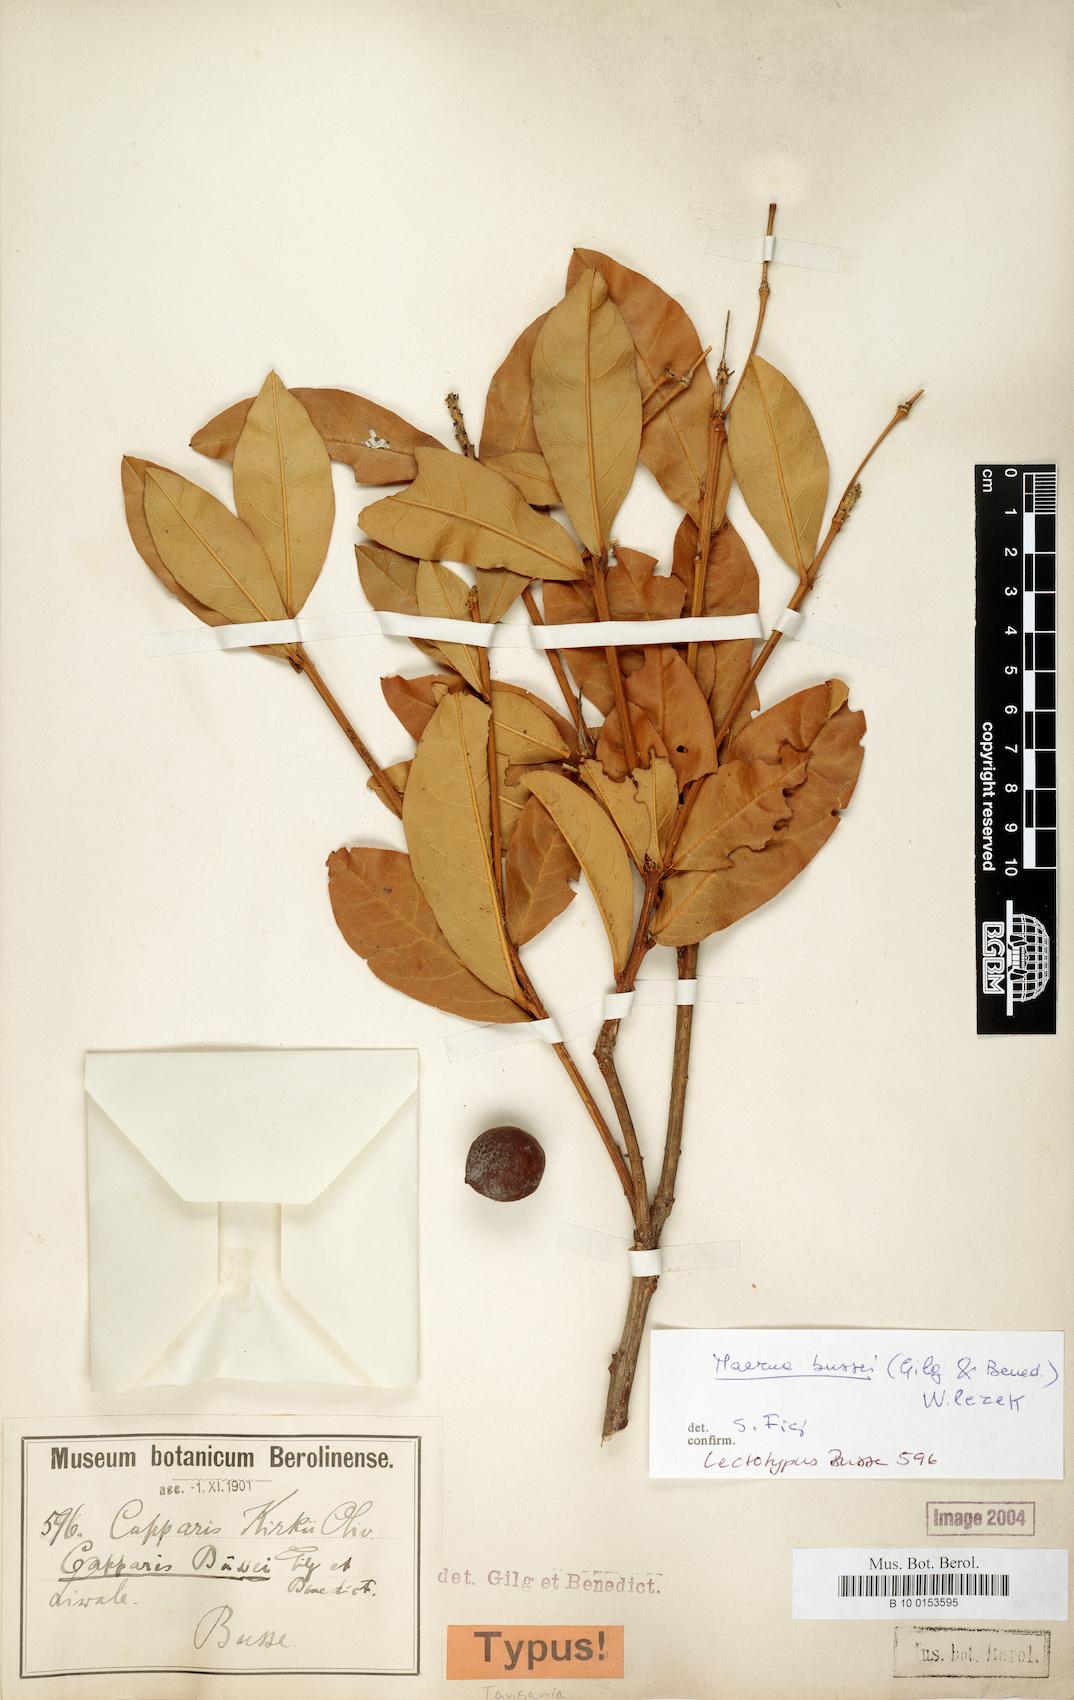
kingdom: Plantae
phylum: Tracheophyta
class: Magnoliopsida
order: Brassicales
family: Capparaceae
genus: Maerua
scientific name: Maerua bussei
